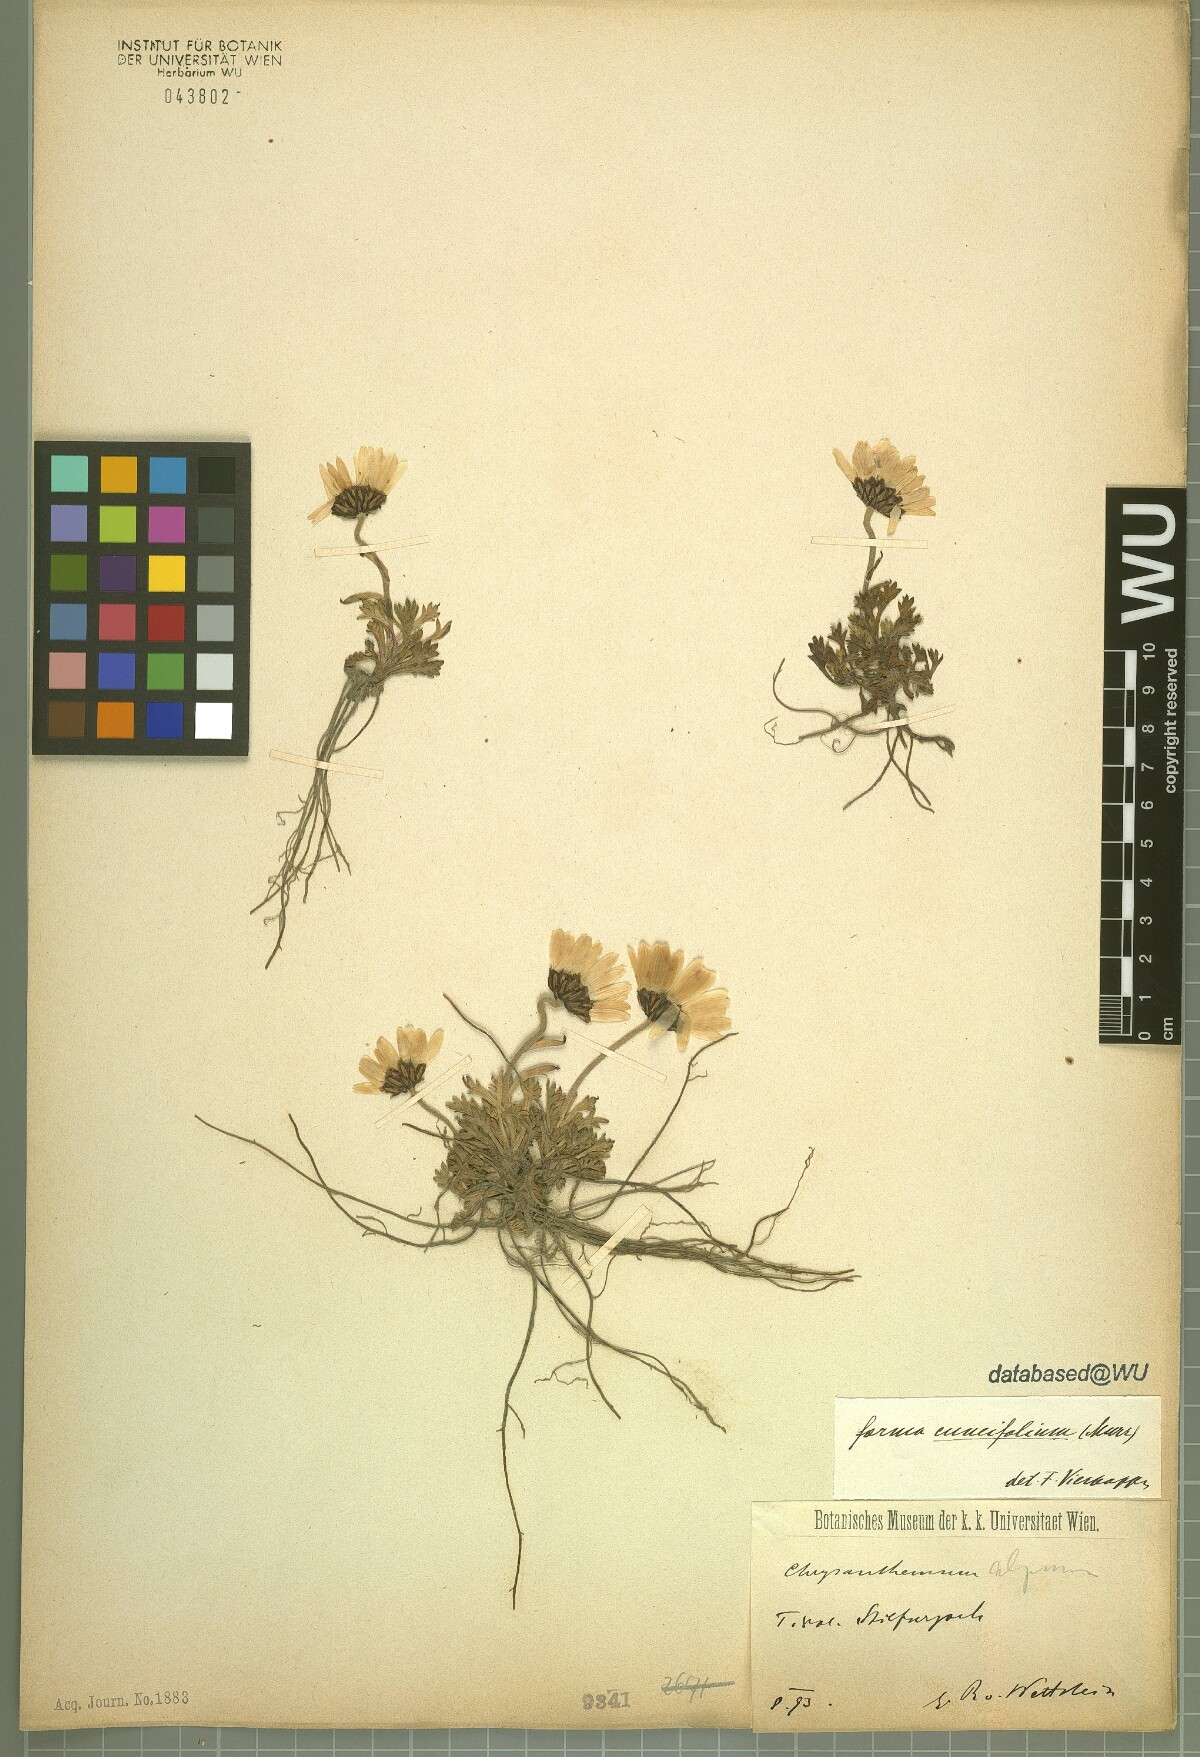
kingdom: Plantae
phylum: Tracheophyta
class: Magnoliopsida
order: Asterales
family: Asteraceae
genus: Leucanthemopsis
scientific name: Leucanthemopsis alpina
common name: Alpine moon daisy
